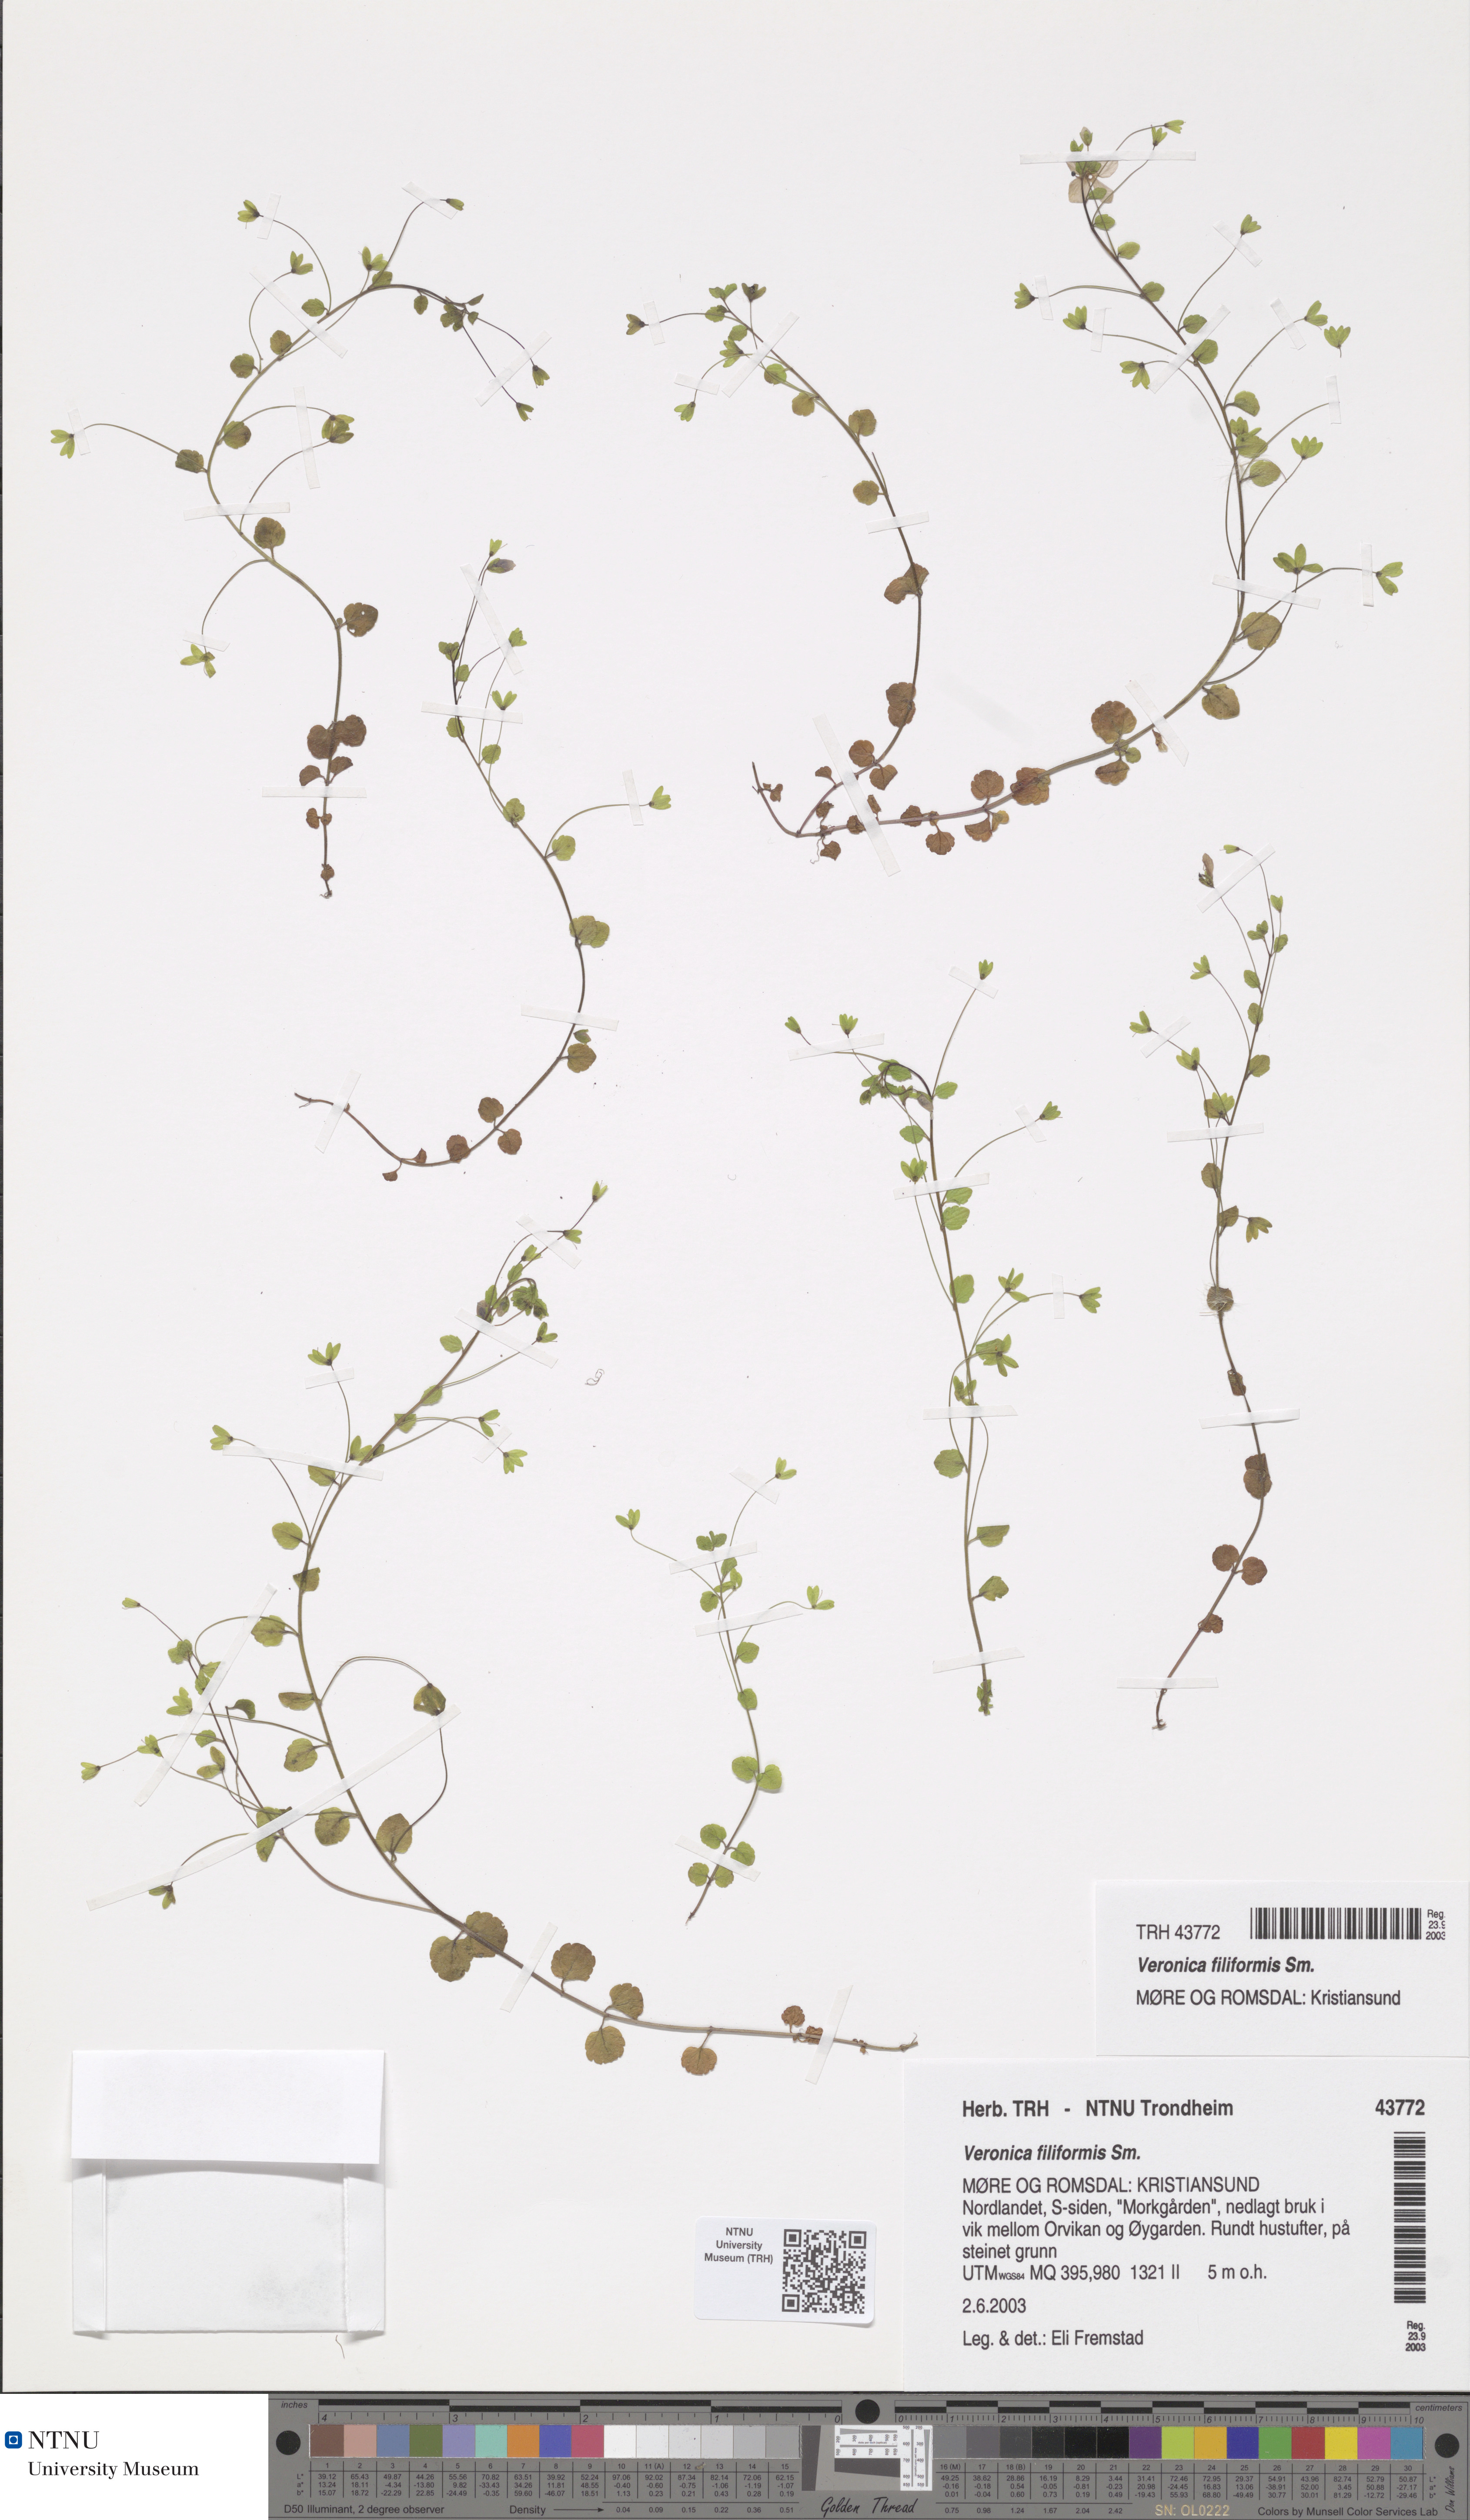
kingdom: Plantae
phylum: Tracheophyta
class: Magnoliopsida
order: Lamiales
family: Plantaginaceae
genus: Veronica
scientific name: Veronica filiformis
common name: Slender speedwell
